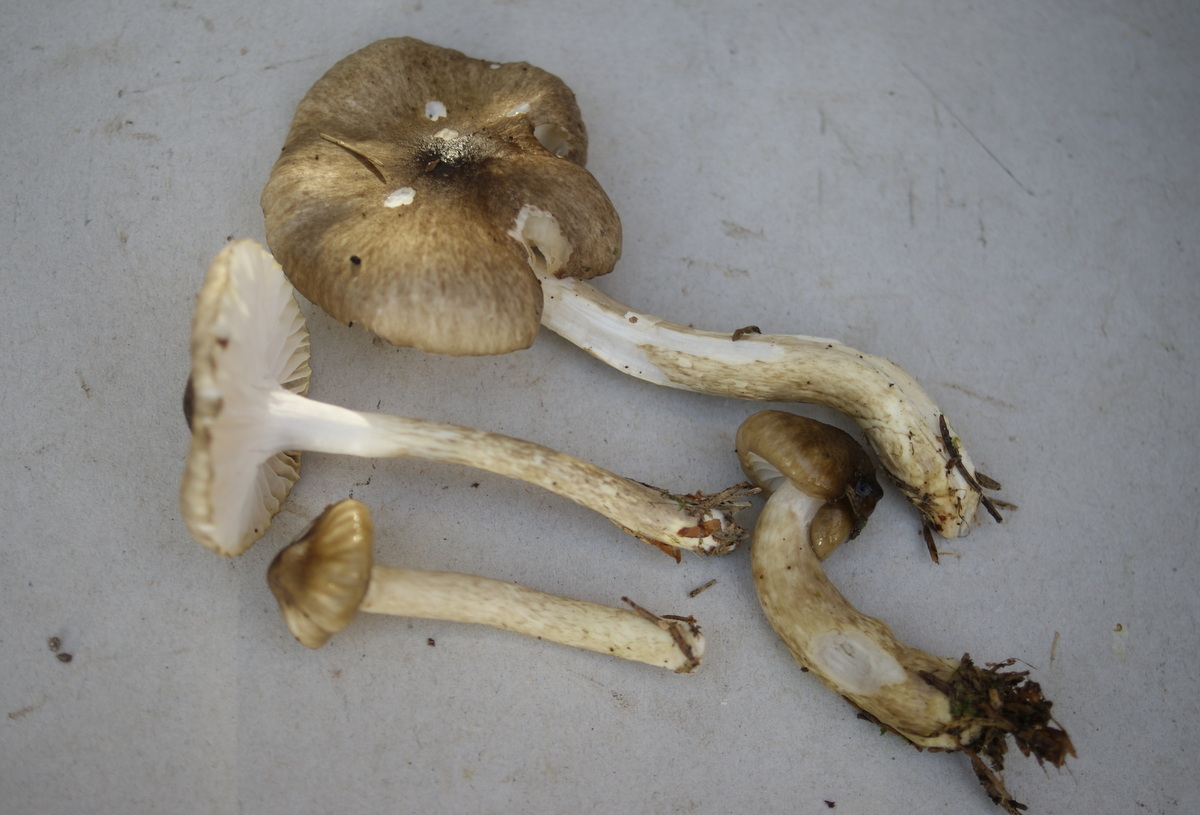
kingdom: Fungi
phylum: Basidiomycota
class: Agaricomycetes
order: Agaricales
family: Hygrophoraceae
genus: Hygrophorus
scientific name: Hygrophorus olivaceoalbus
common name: hvidbrun sneglehat
